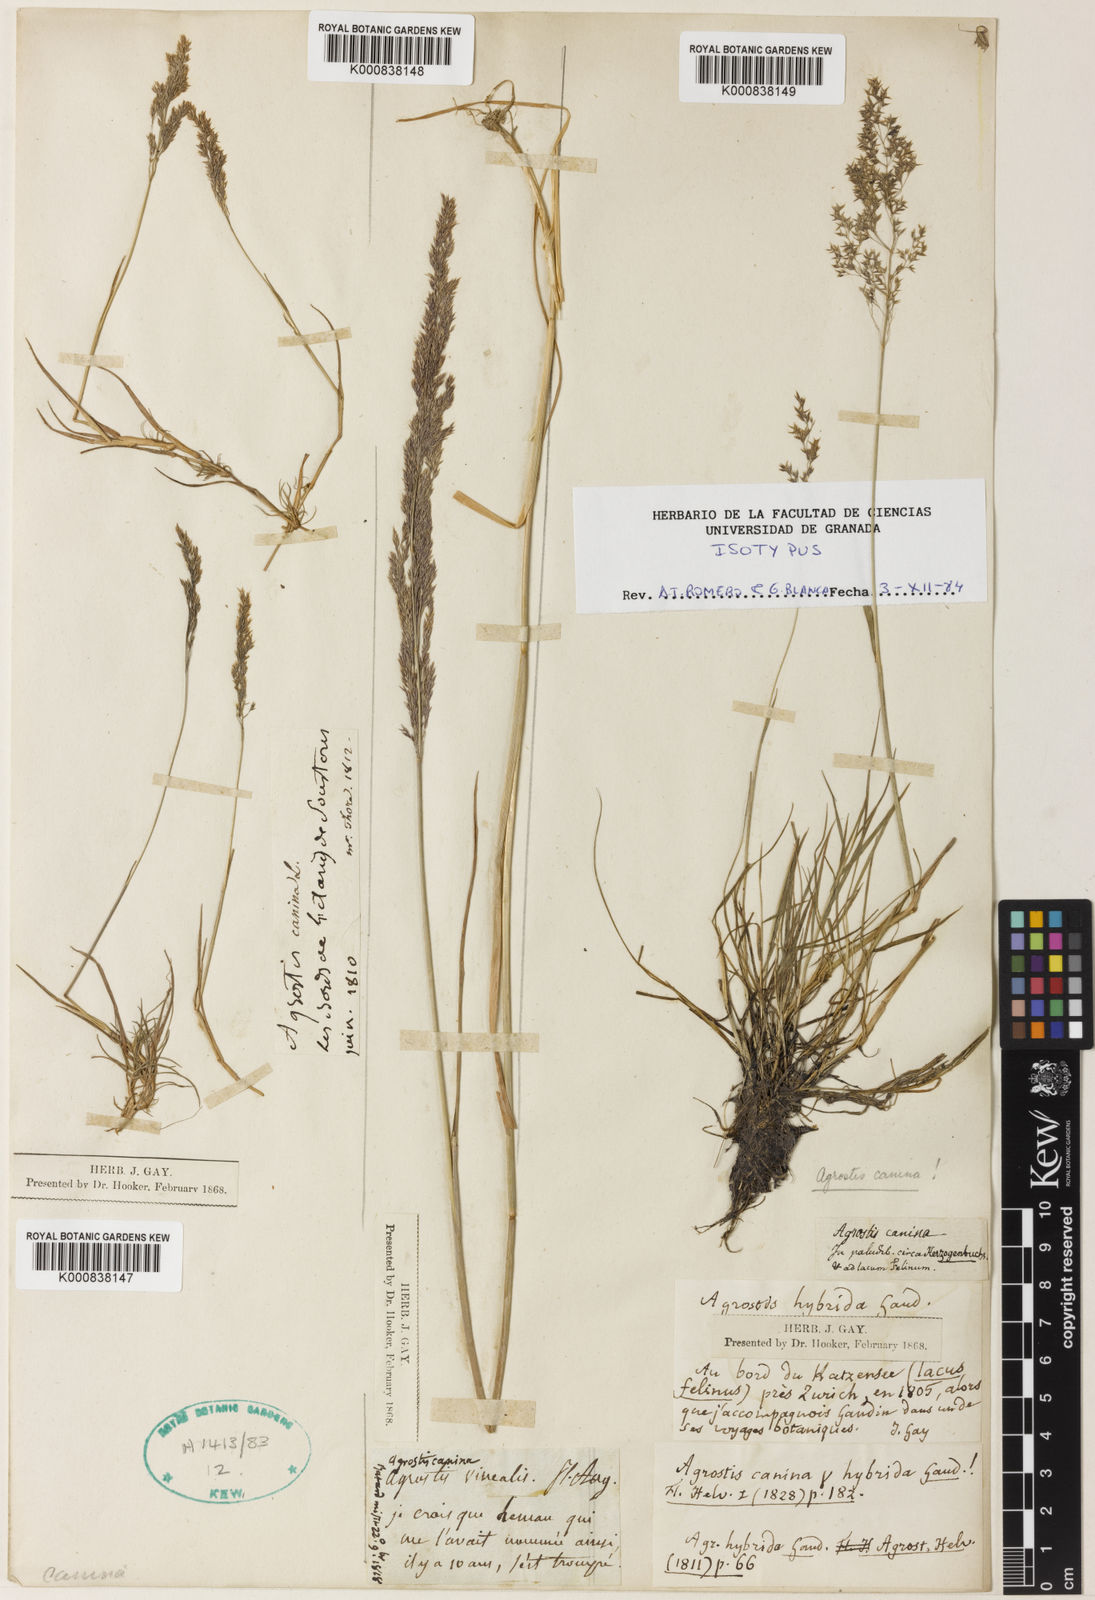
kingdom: Plantae
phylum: Tracheophyta
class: Liliopsida
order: Poales
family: Poaceae
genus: Agrostis
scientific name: Agrostis vinealis
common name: Brown bent
